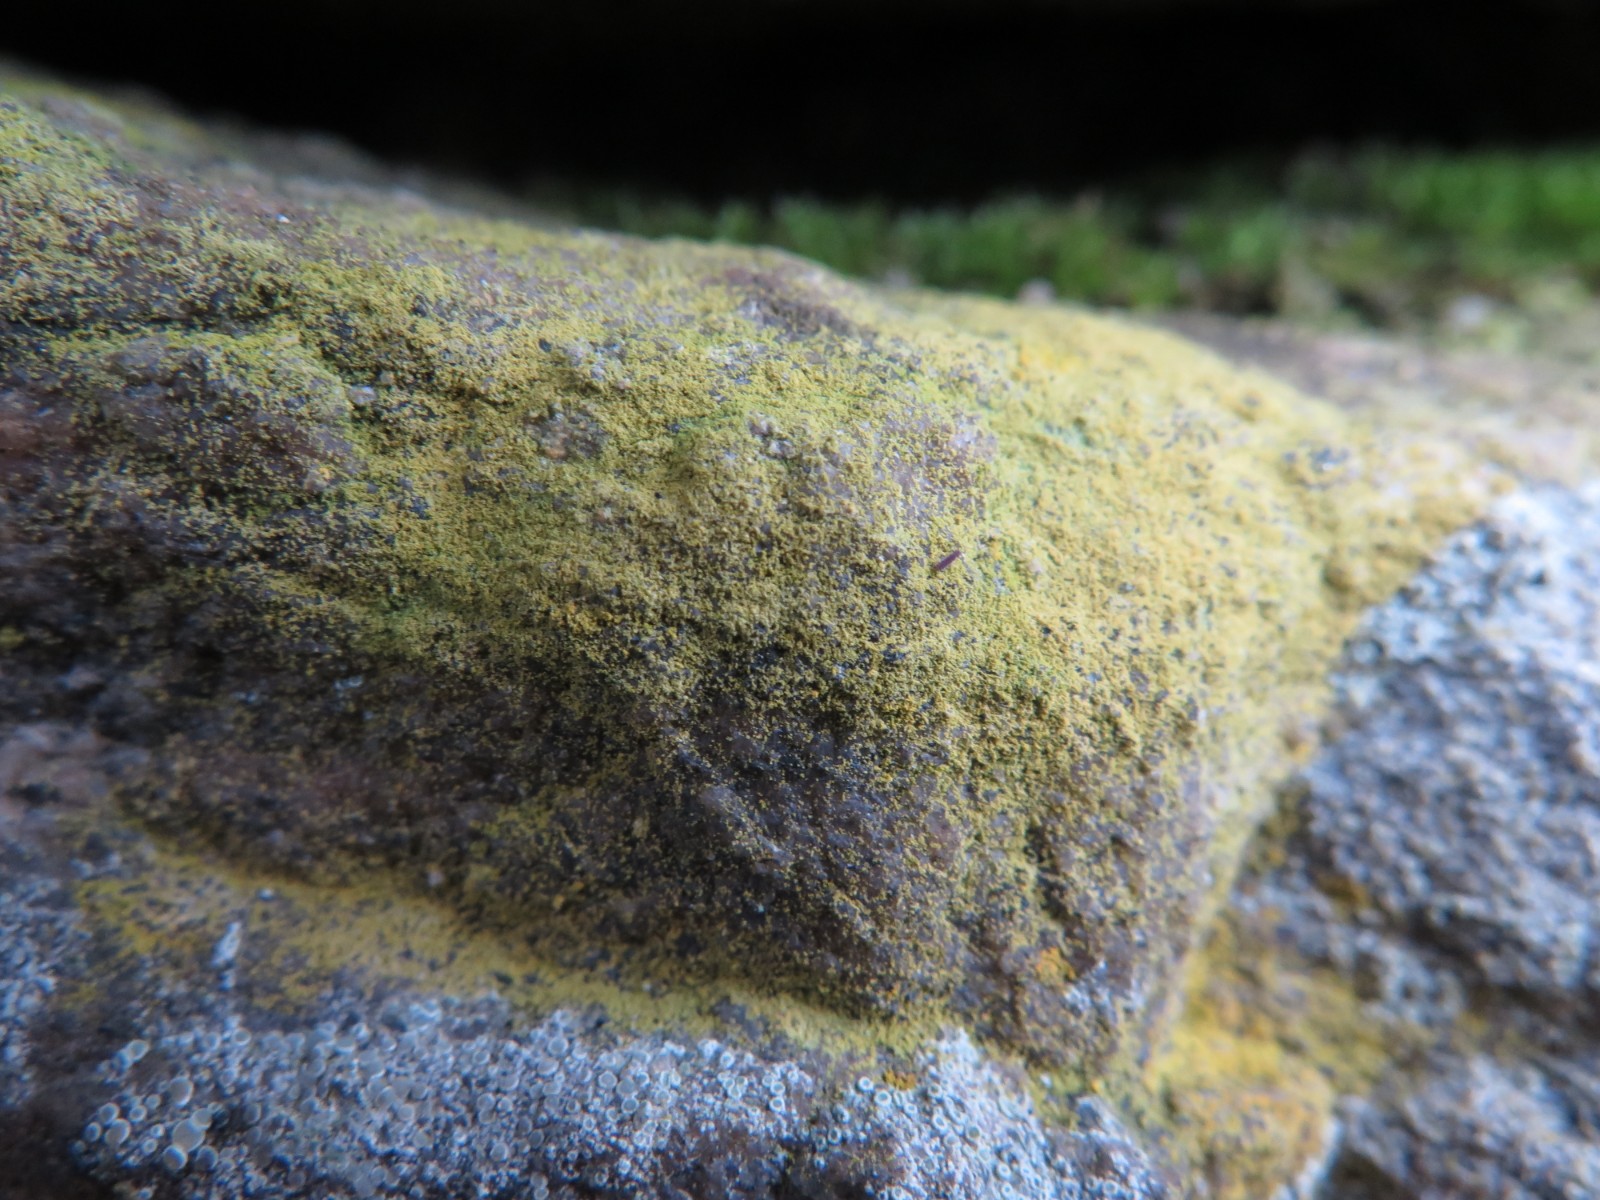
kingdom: Fungi
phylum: Ascomycota
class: Lecanoromycetes
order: Lecanorales
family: Psilolechiaceae
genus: Psilolechia
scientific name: Psilolechia lucida
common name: gul skyggelav
